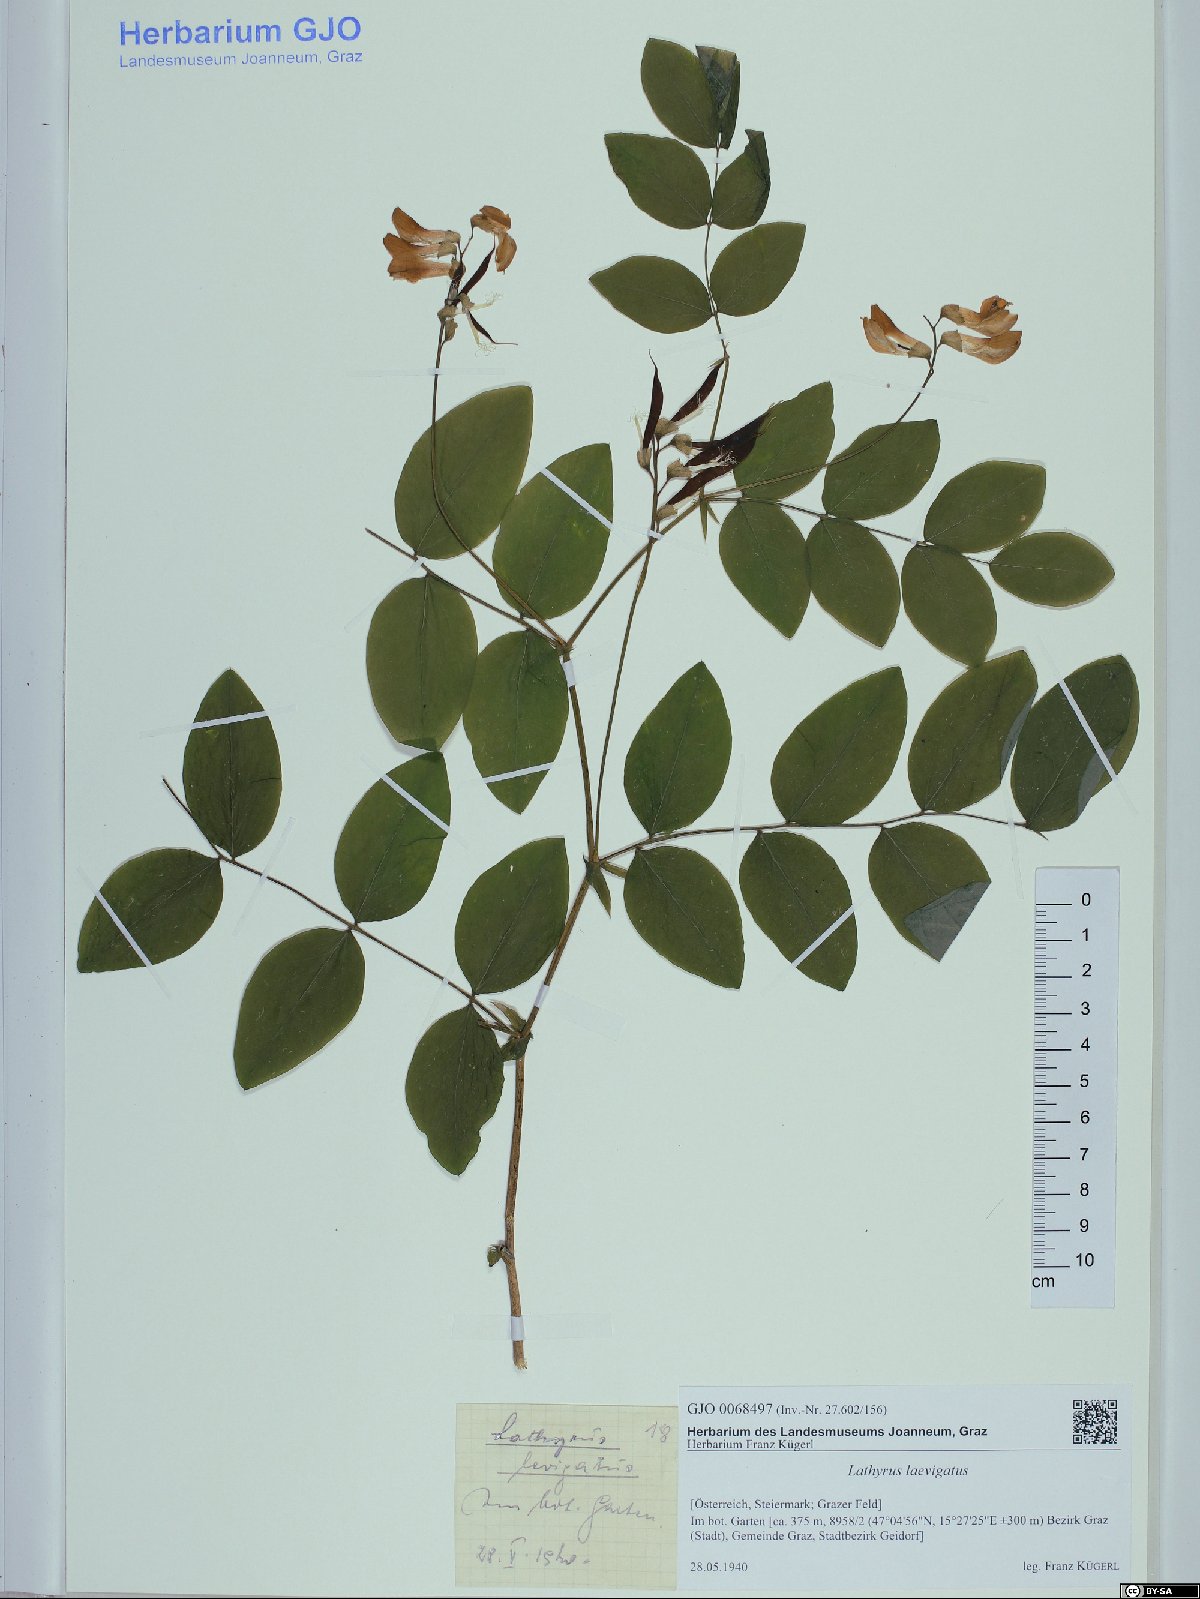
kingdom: Plantae
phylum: Tracheophyta
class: Magnoliopsida
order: Fabales
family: Fabaceae
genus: Lathyrus
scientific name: Lathyrus laevigatus
